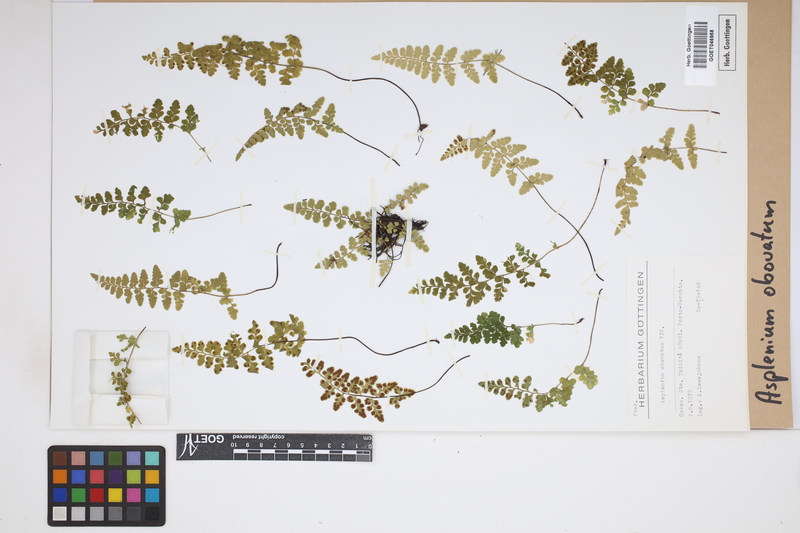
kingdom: Plantae
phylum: Tracheophyta
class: Polypodiopsida
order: Polypodiales
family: Aspleniaceae
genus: Asplenium
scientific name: Asplenium obovatum
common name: Lanceolate spleenwort
